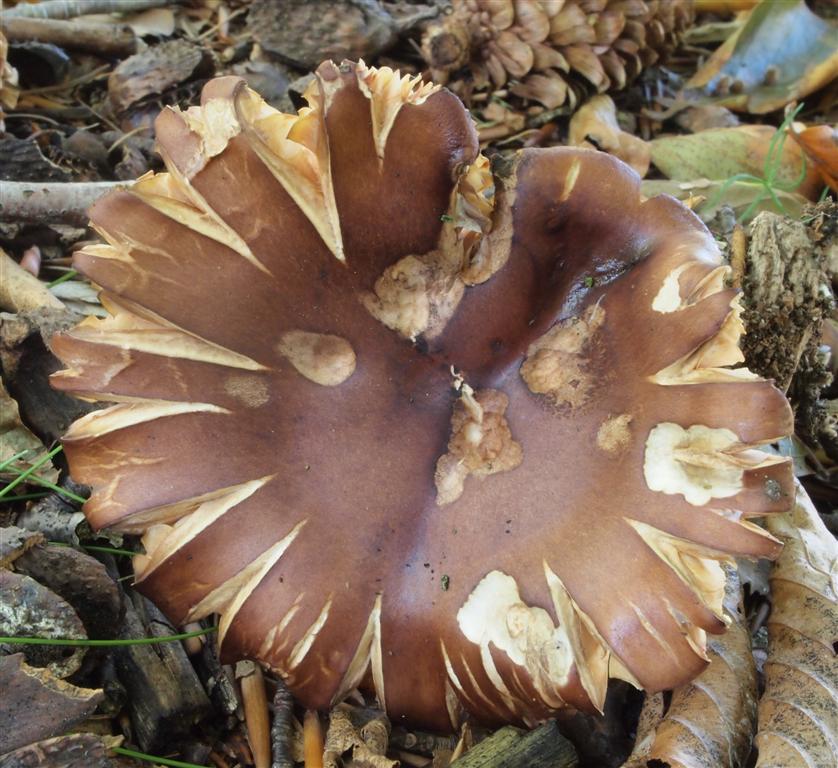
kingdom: Fungi
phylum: Basidiomycota
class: Agaricomycetes
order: Agaricales
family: Tricholomataceae
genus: Tricholoma
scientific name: Tricholoma ustale
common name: sveden ridderhat
